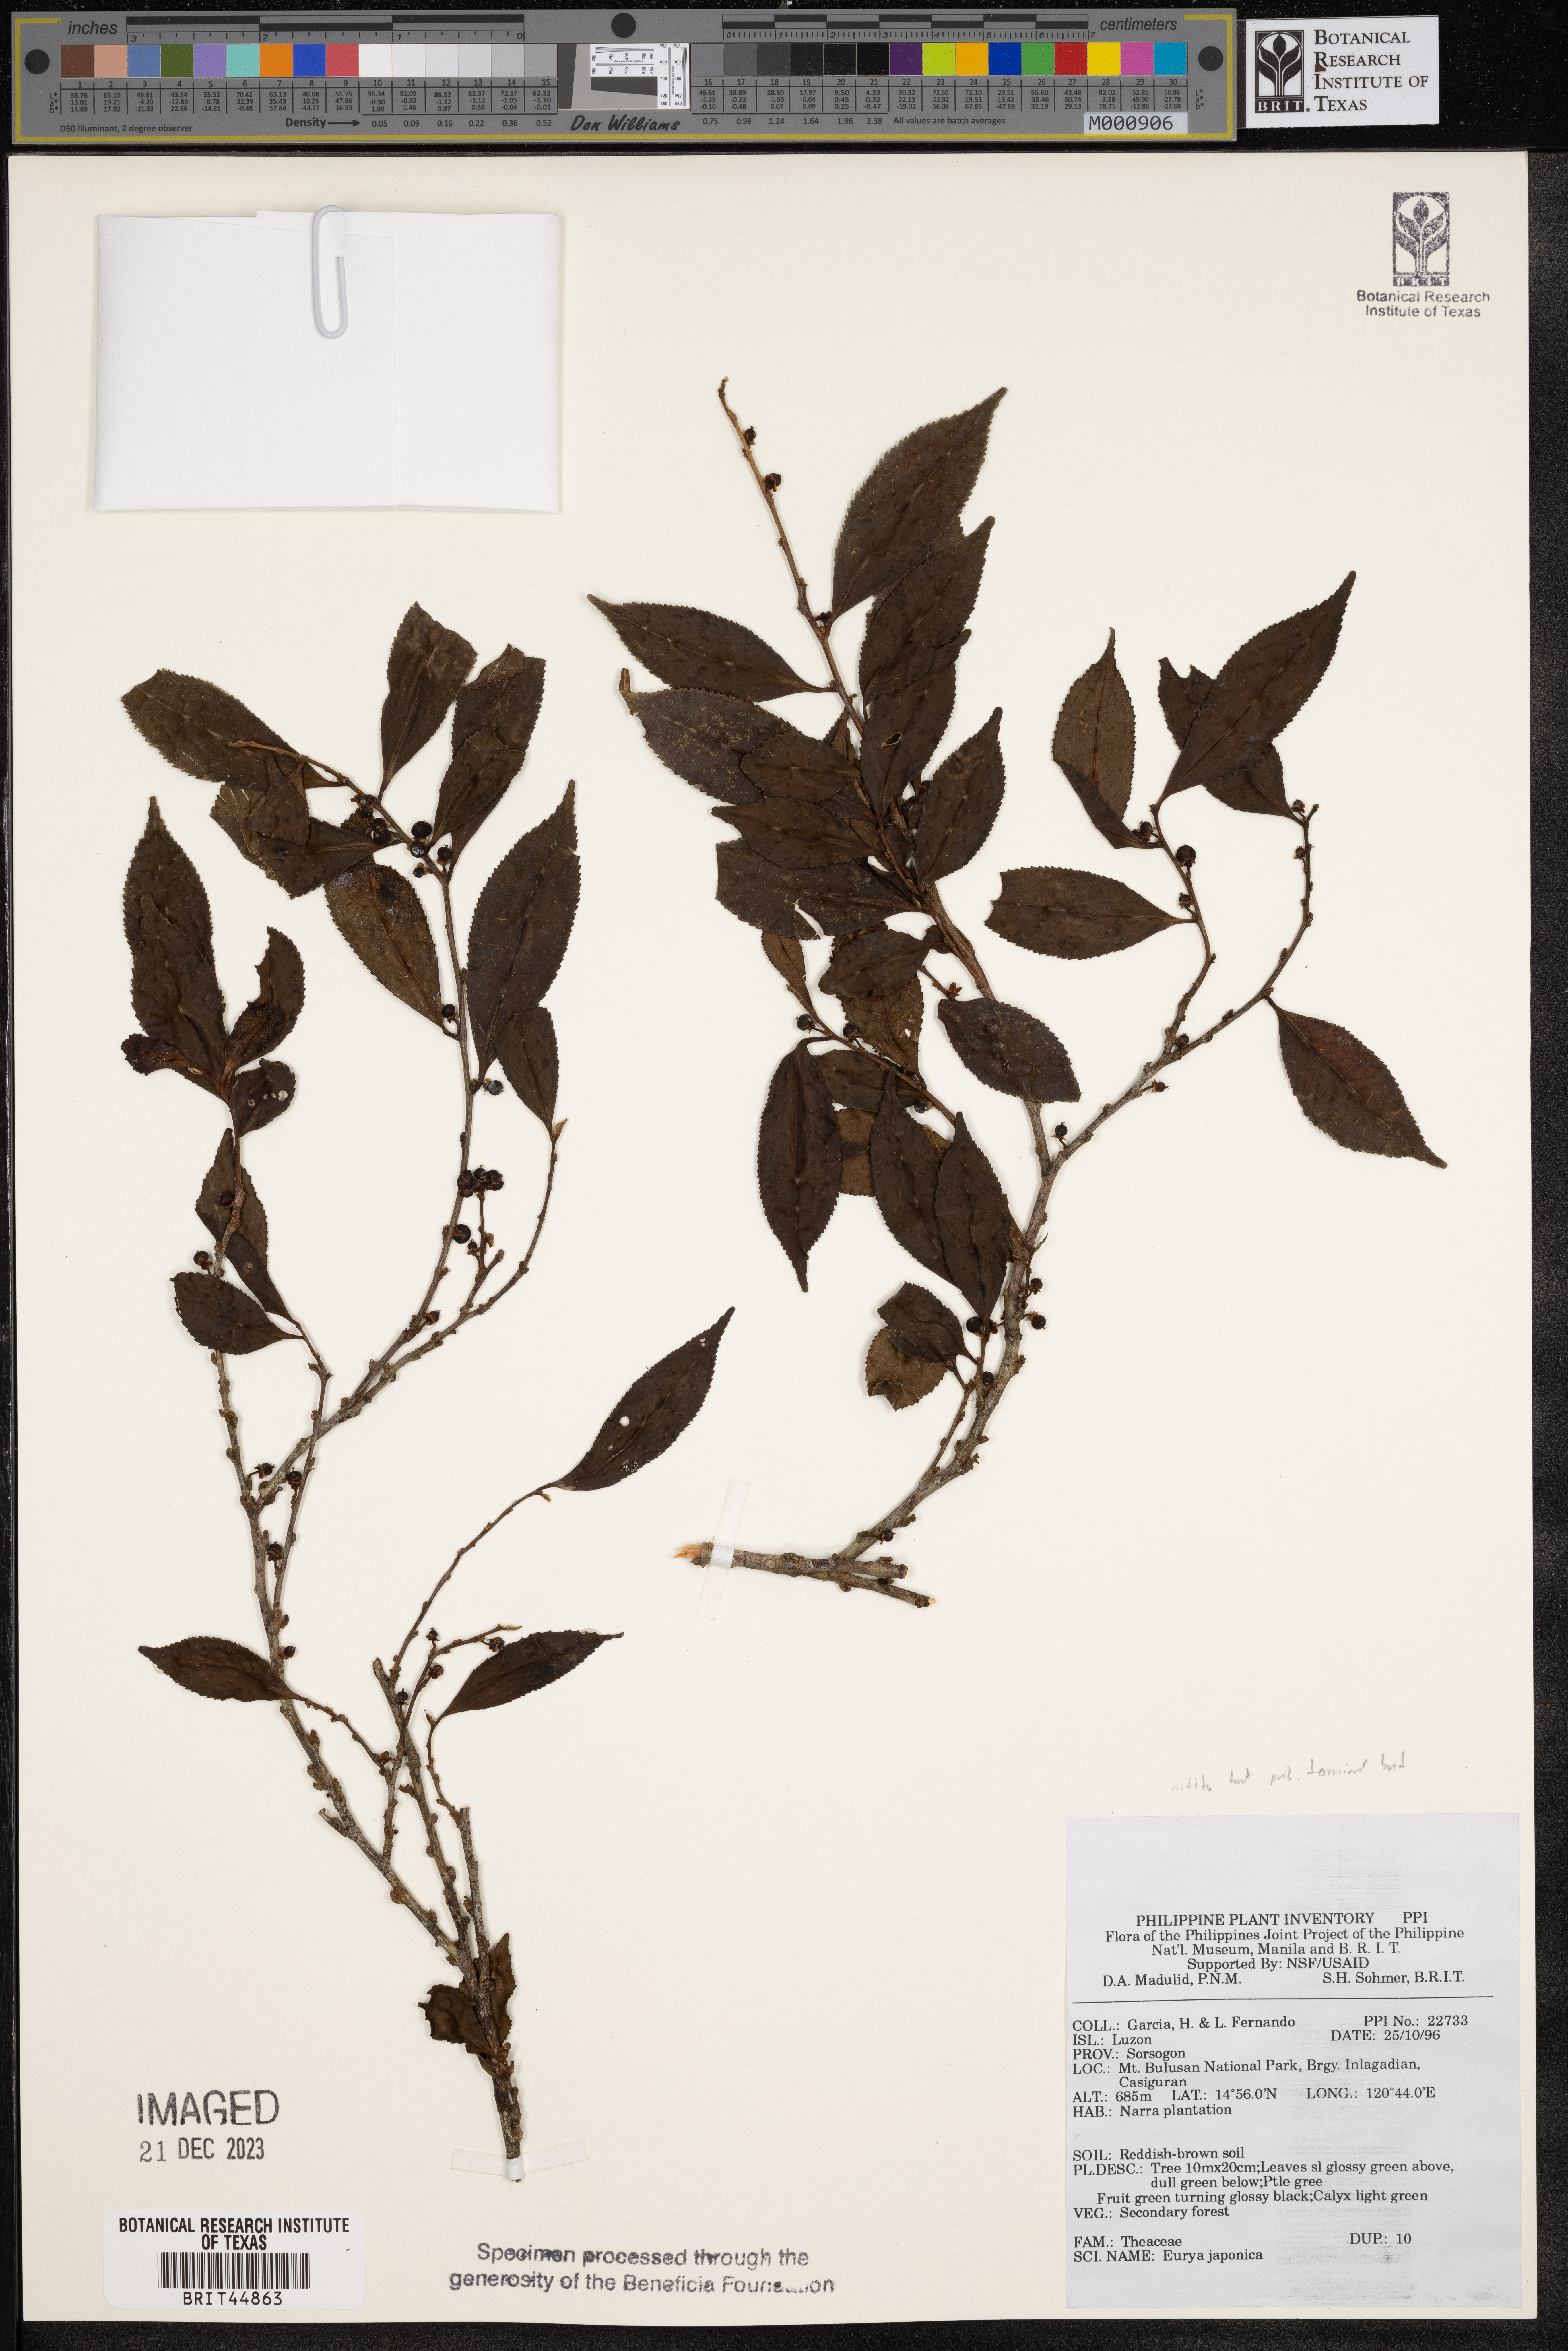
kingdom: Plantae
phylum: Tracheophyta
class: Magnoliopsida
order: Ericales
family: Pentaphylacaceae
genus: Eurya
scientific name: Eurya japonica
